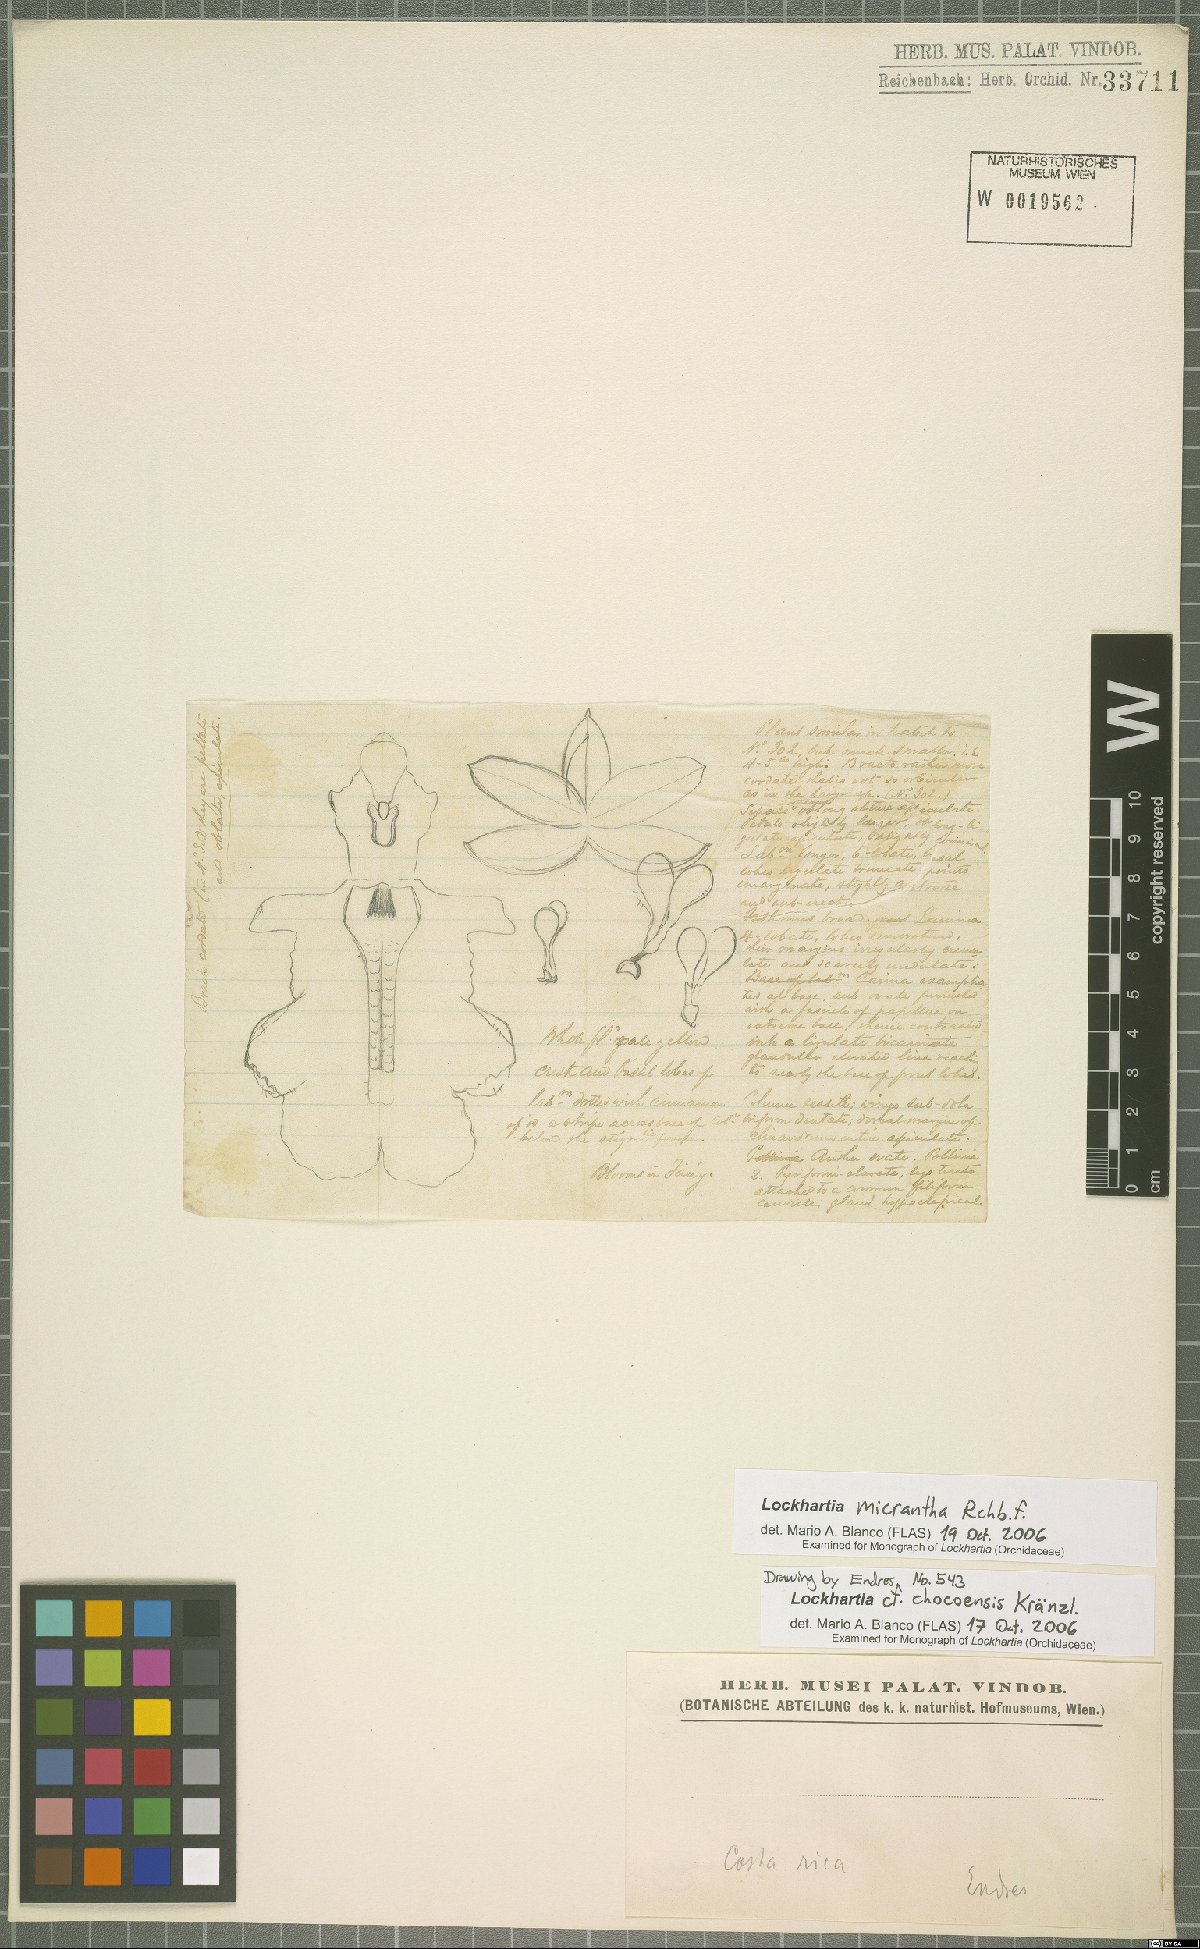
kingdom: Plantae
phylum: Tracheophyta
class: Liliopsida
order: Asparagales
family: Orchidaceae
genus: Lockhartia
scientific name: Lockhartia micrantha
